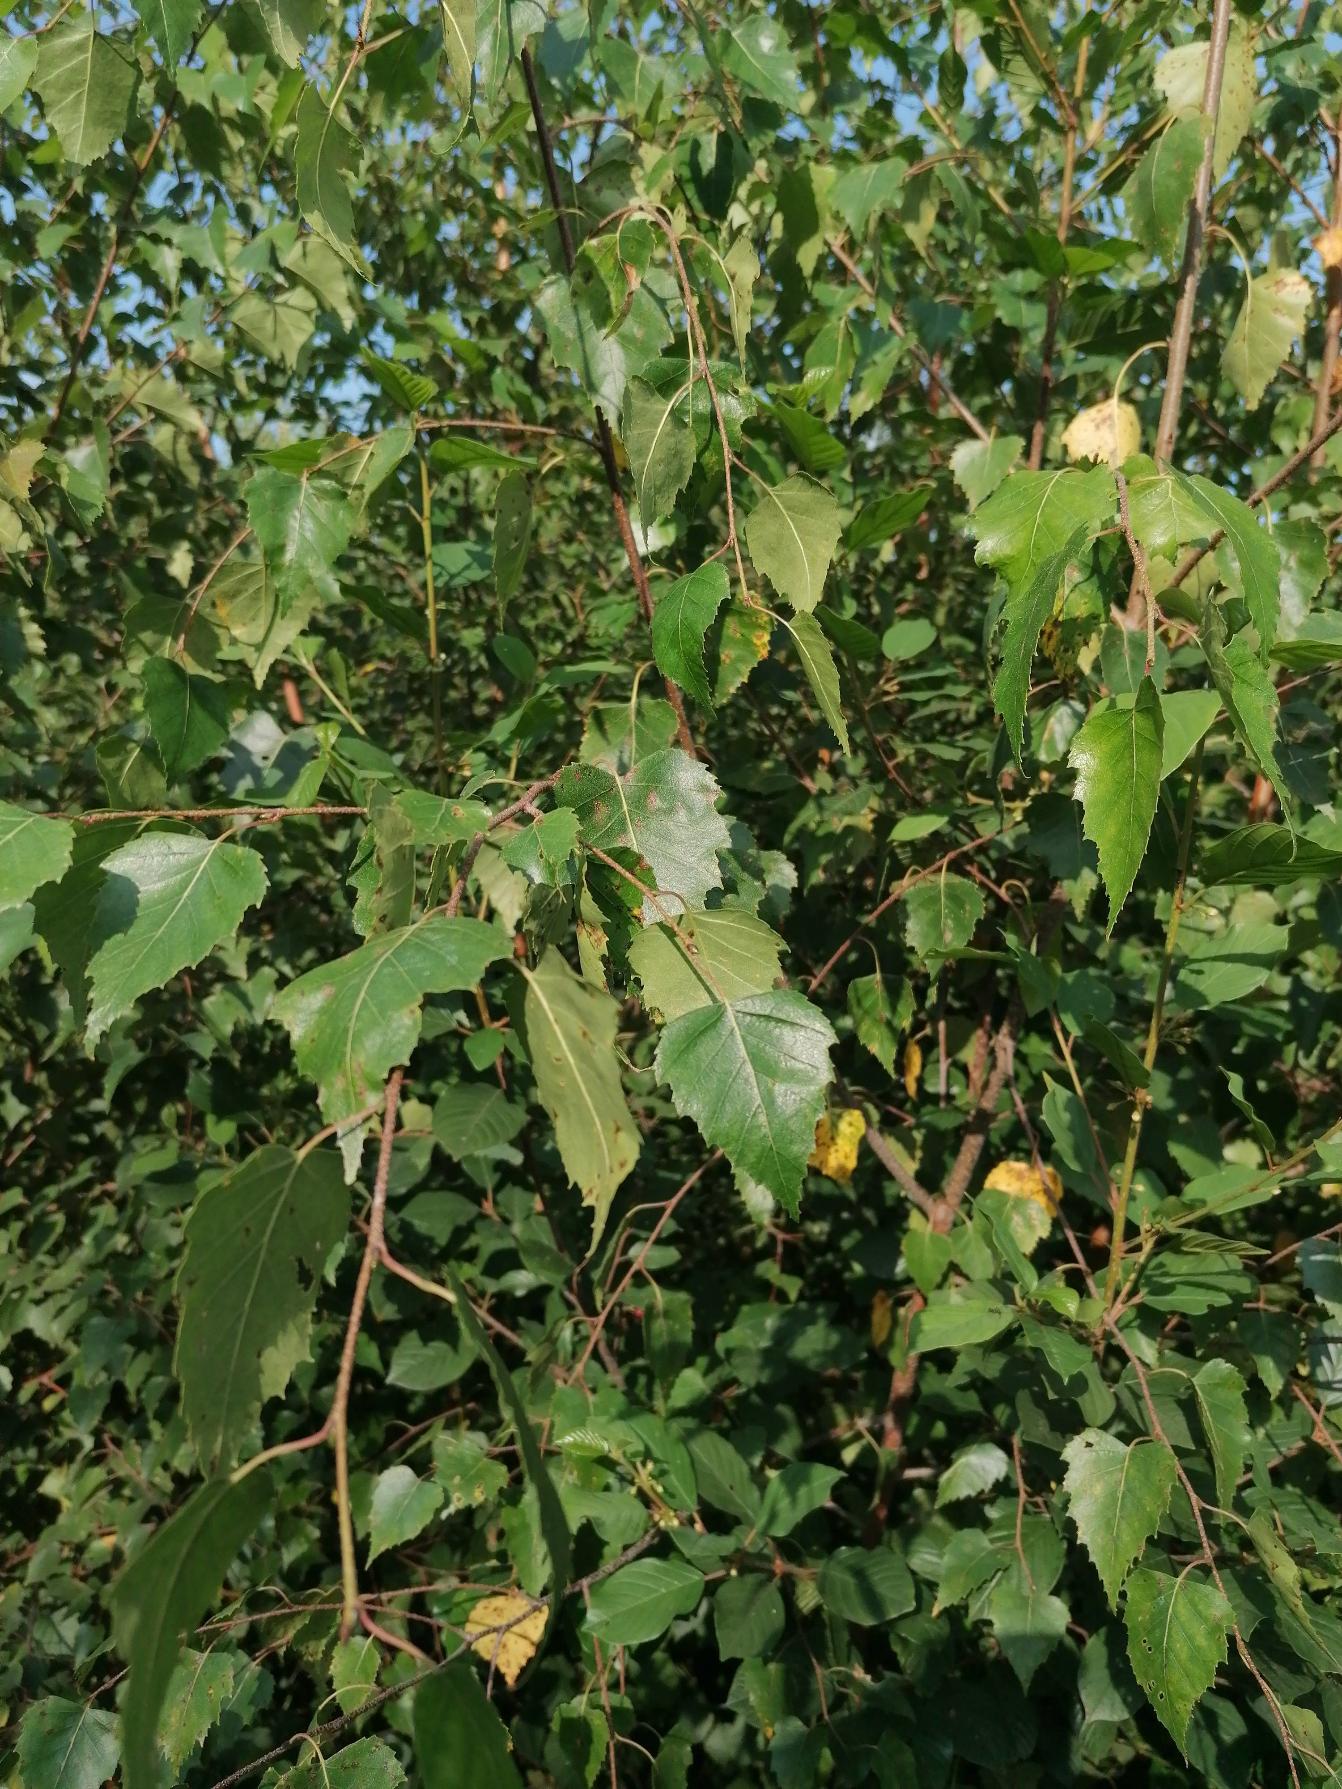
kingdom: Plantae
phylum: Tracheophyta
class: Magnoliopsida
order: Fagales
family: Betulaceae
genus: Betula
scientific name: Betula pendula
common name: Vorte-birk
